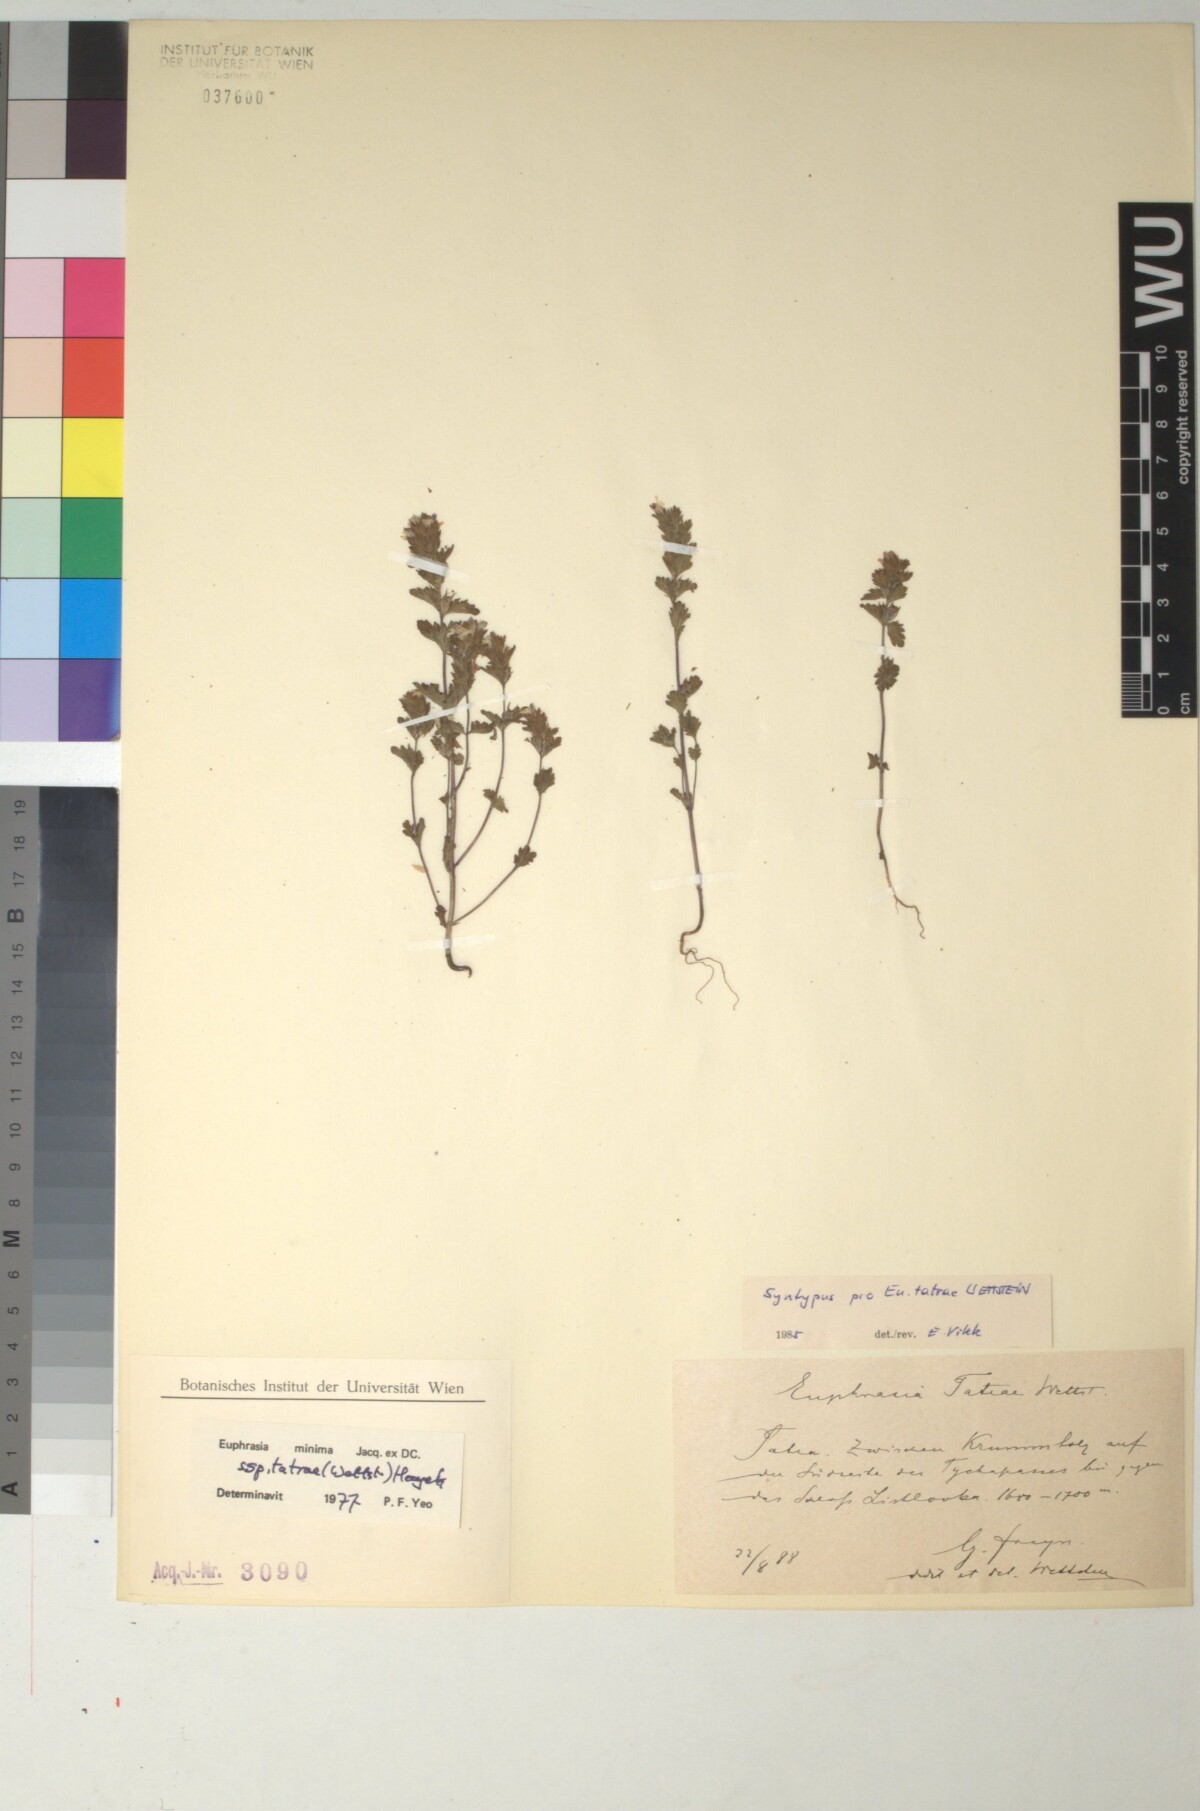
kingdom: Plantae
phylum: Tracheophyta
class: Magnoliopsida
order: Lamiales
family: Orobanchaceae
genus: Euphrasia
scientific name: Euphrasia tatrae
